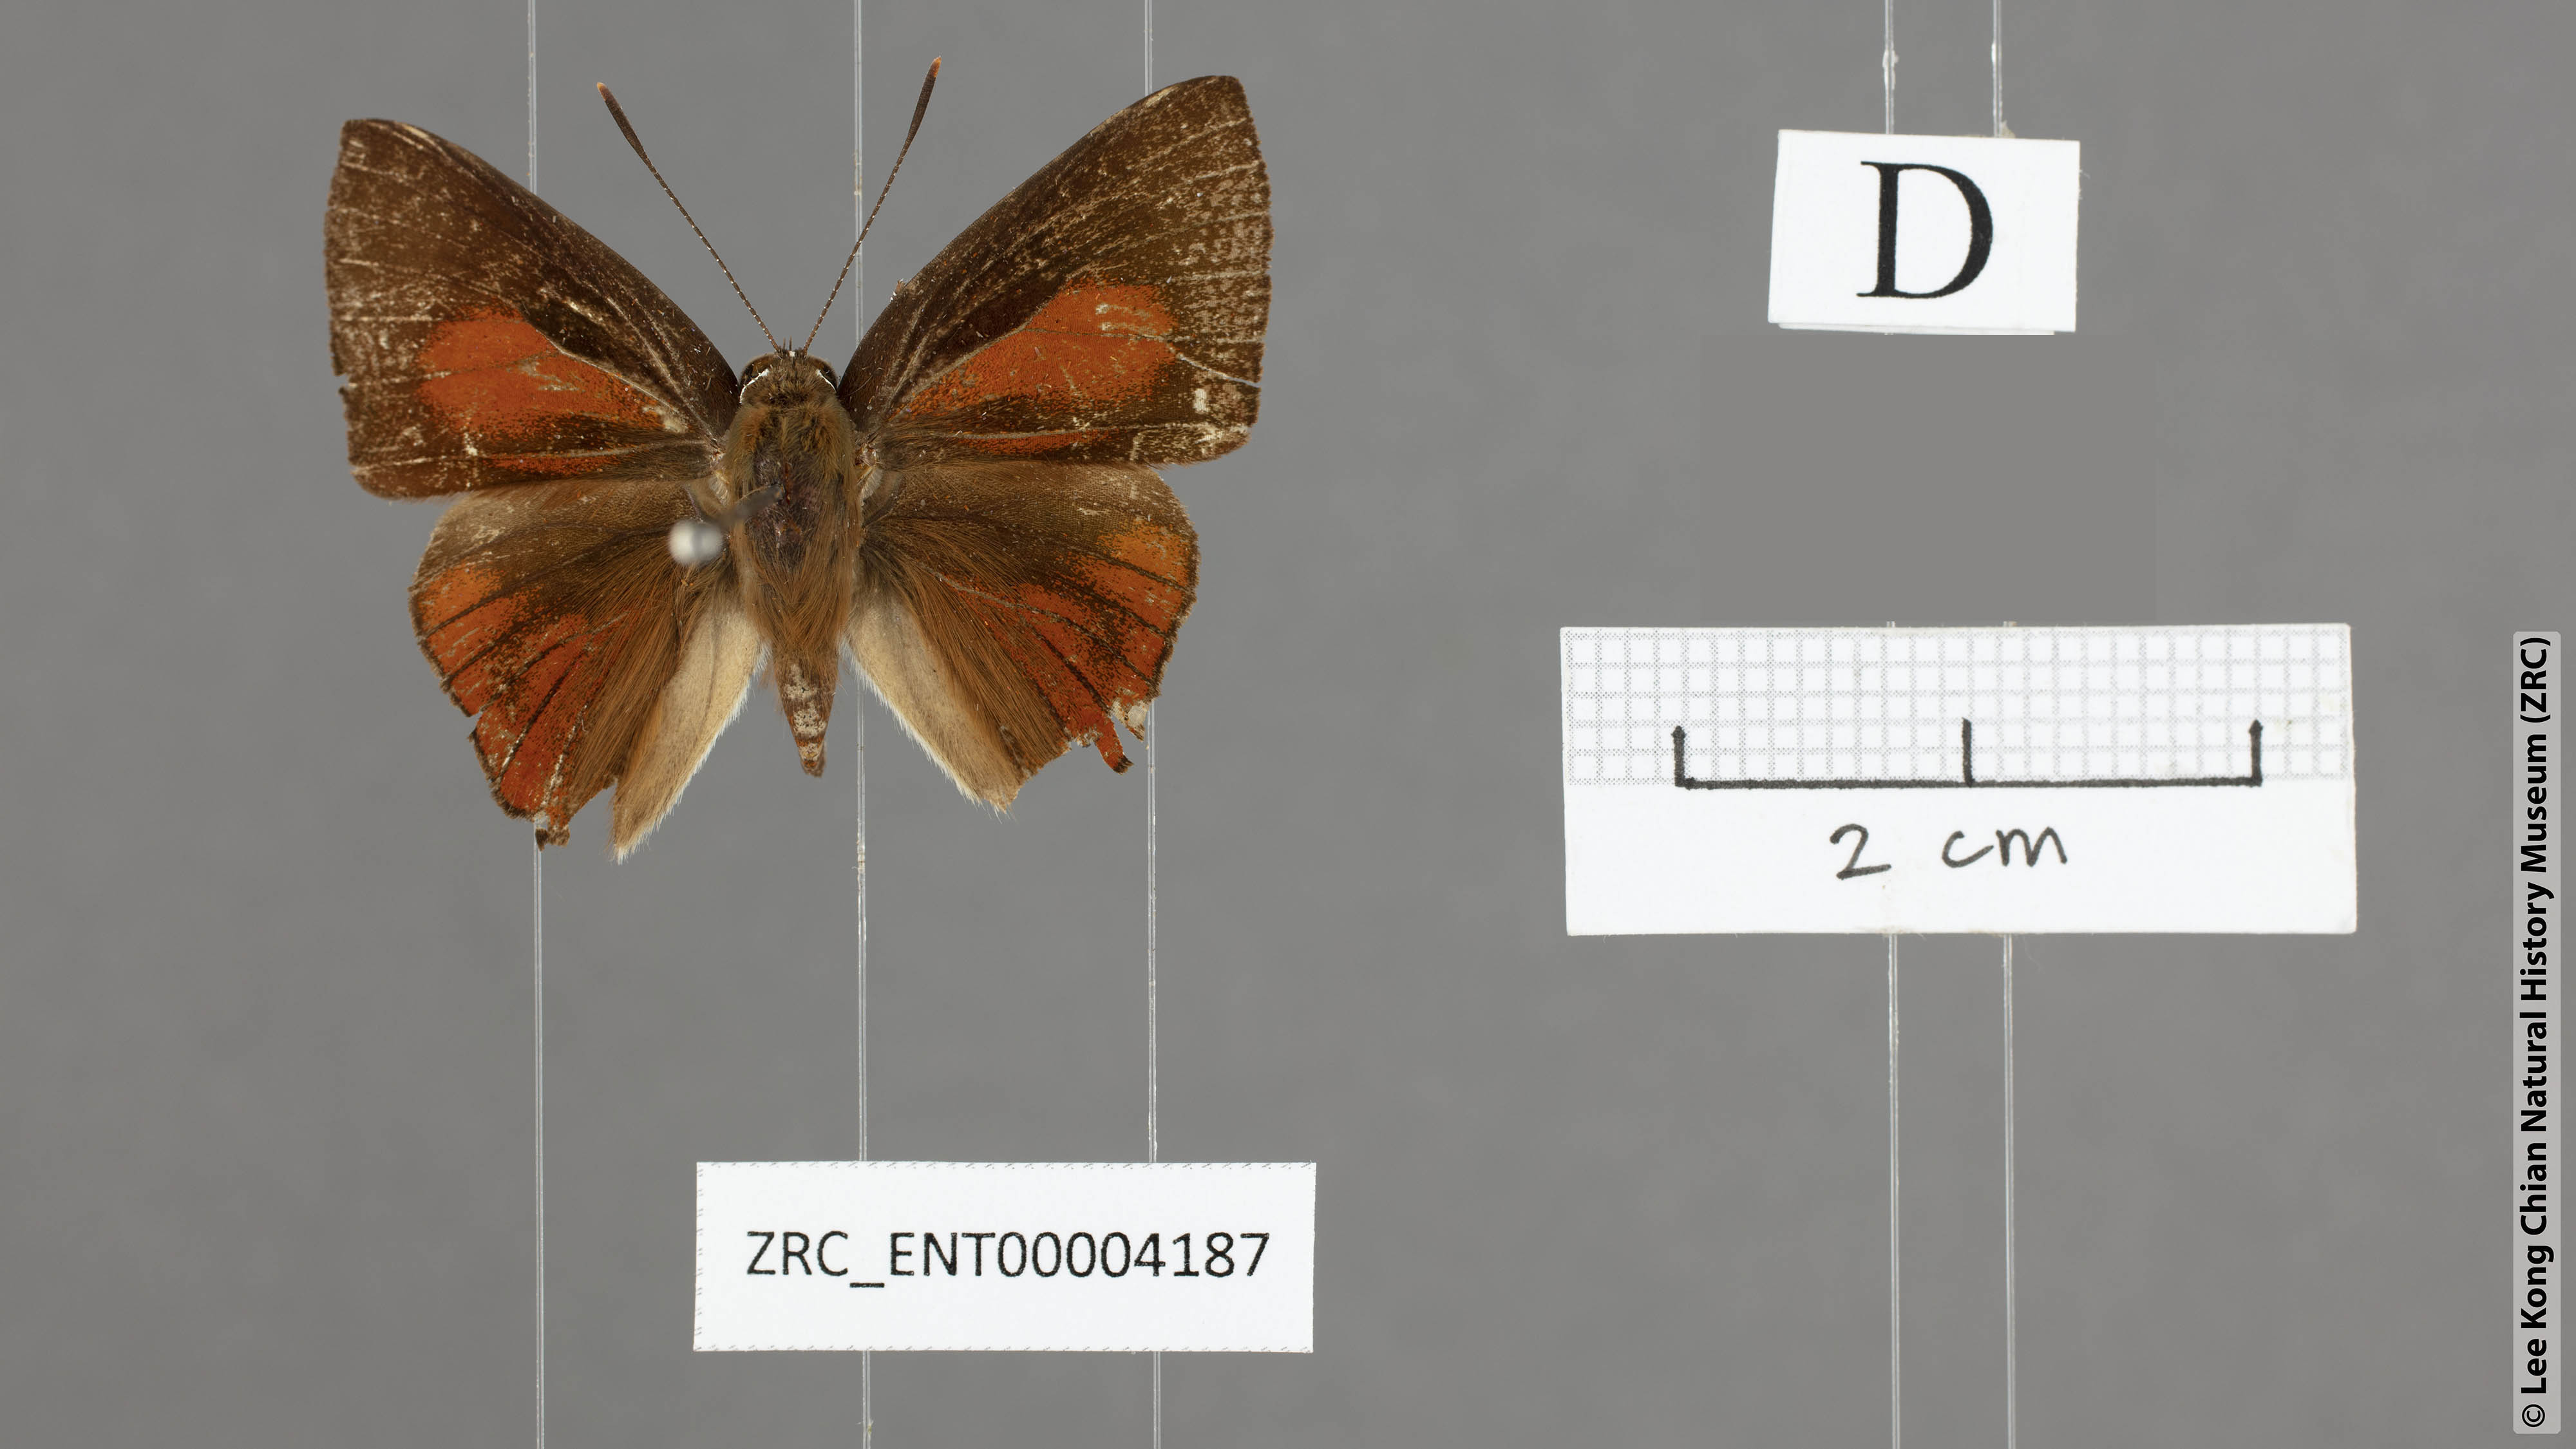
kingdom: Animalia
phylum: Arthropoda
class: Insecta
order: Lepidoptera
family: Lycaenidae
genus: Deudorix
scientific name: Deudorix elioti
